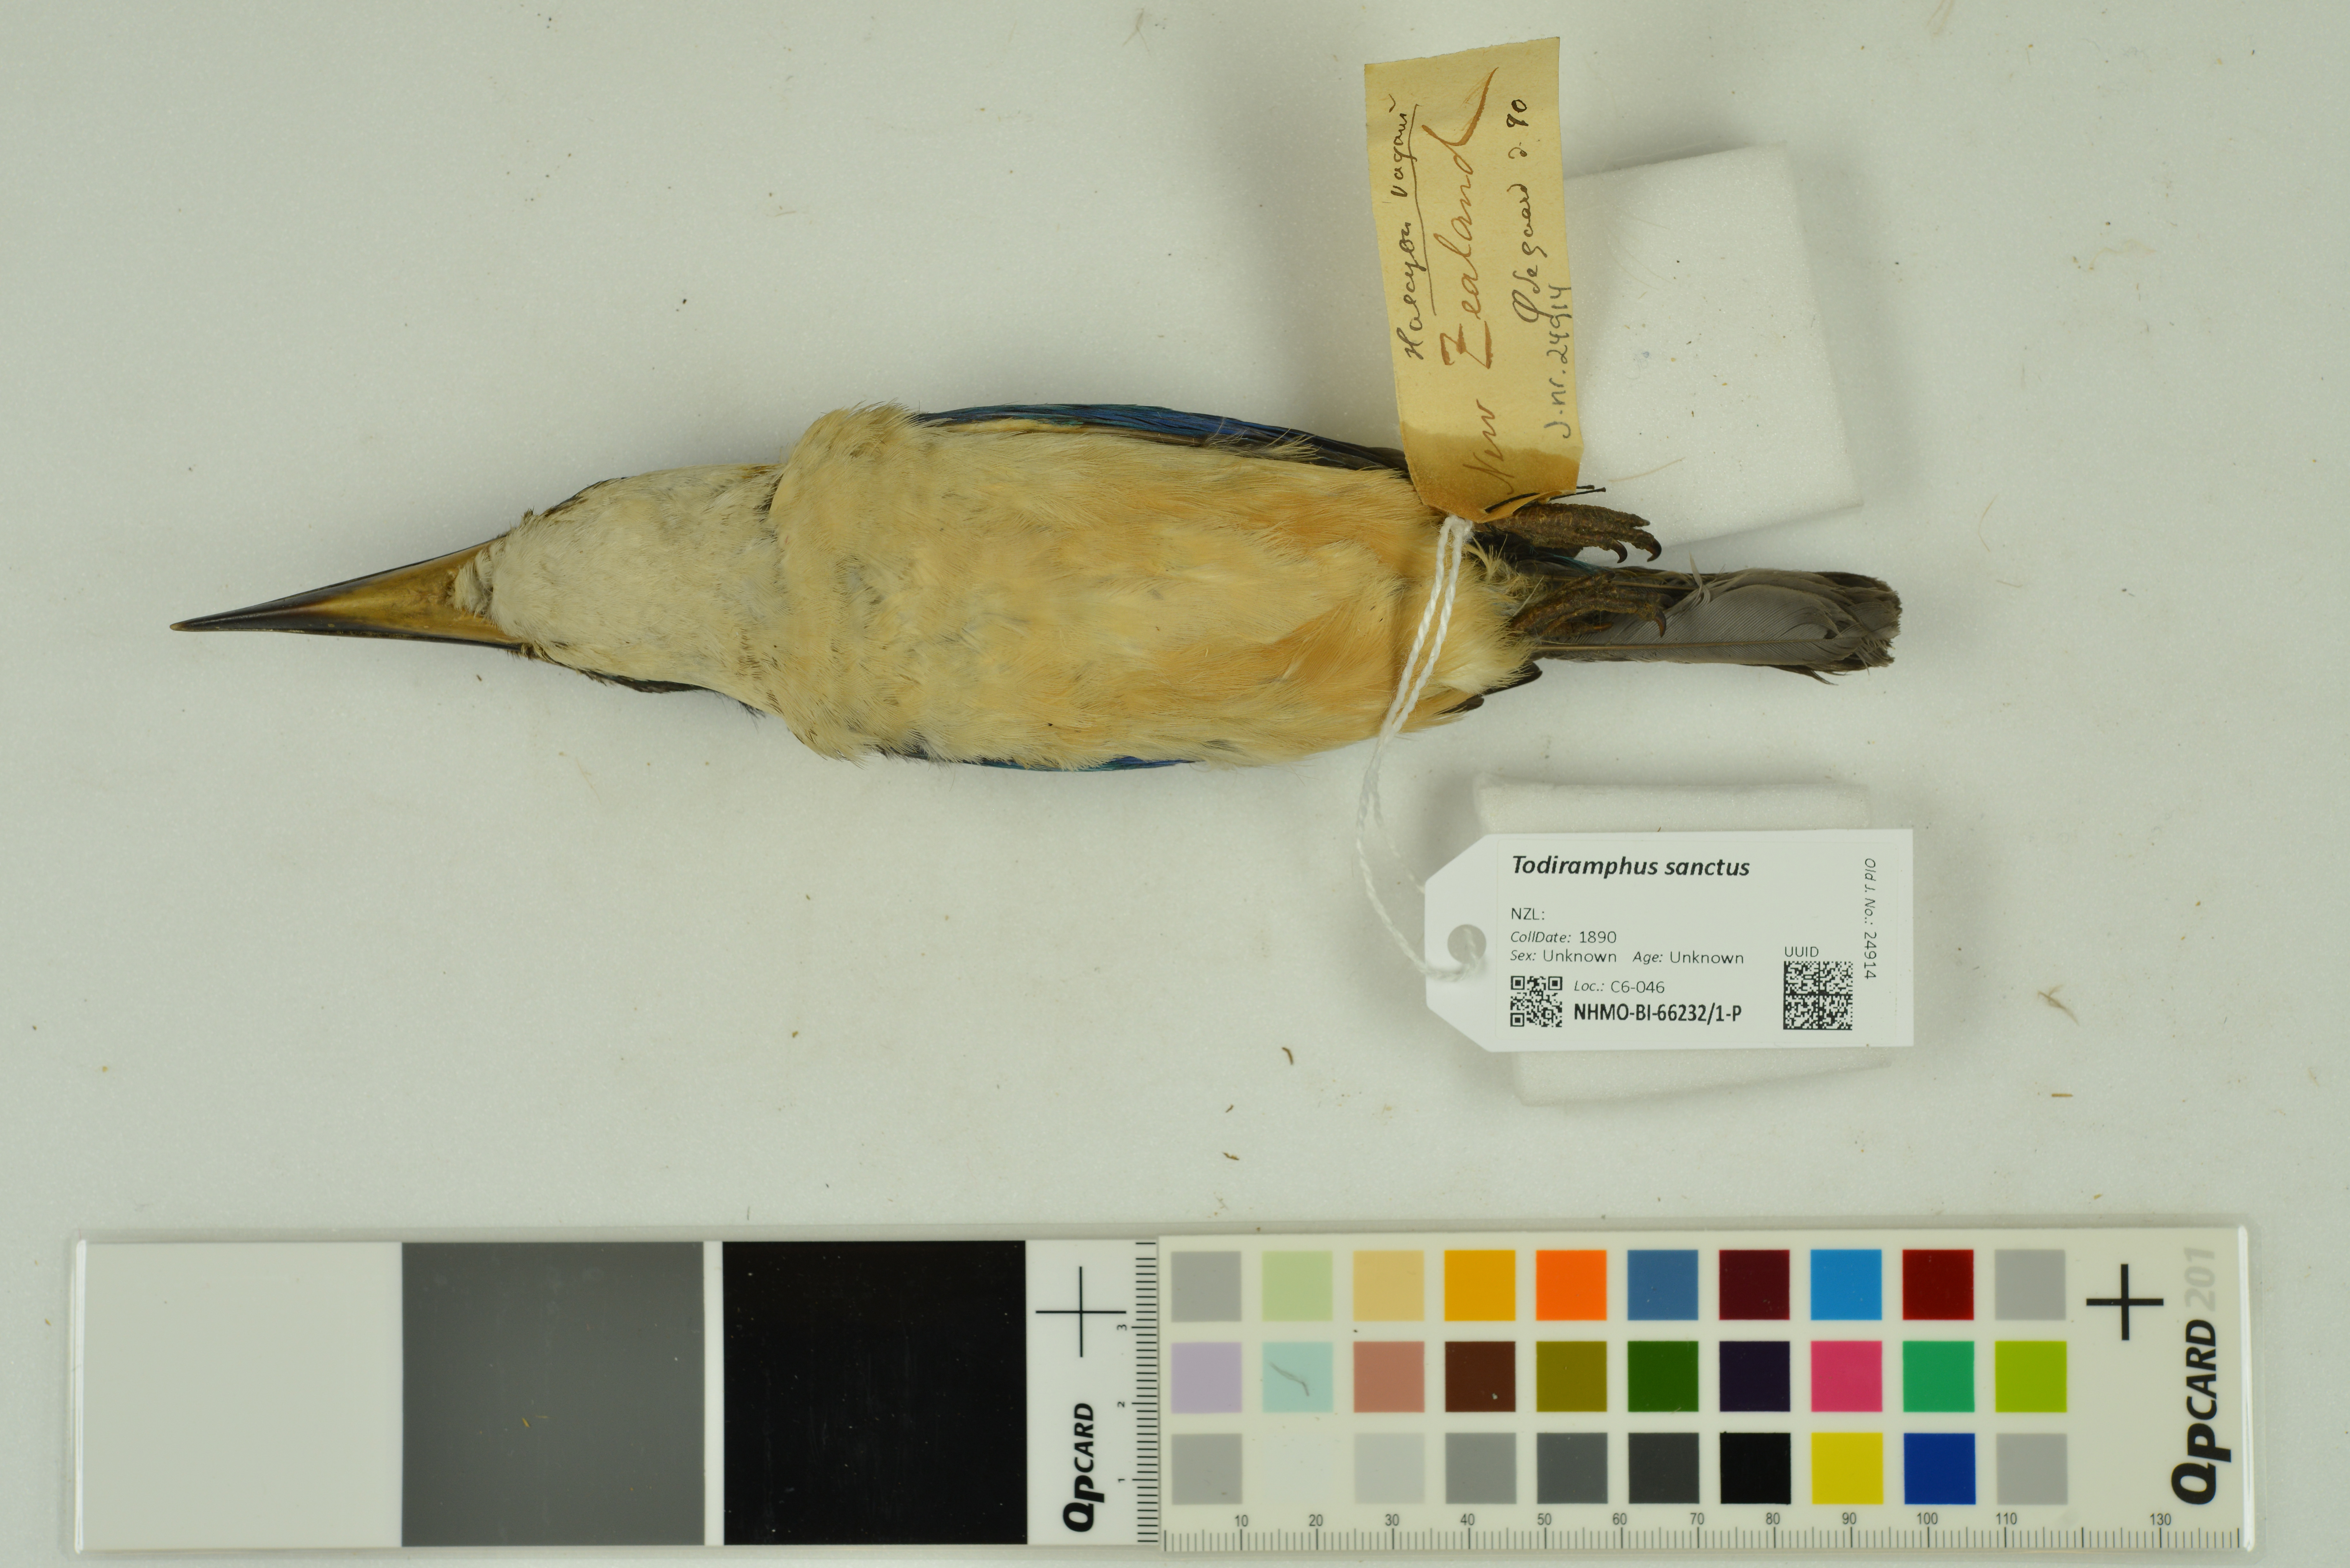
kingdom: Animalia
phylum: Chordata
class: Aves
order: Coraciiformes
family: Alcedinidae
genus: Todiramphus
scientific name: Todiramphus sanctus
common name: Sacred kingfisher
